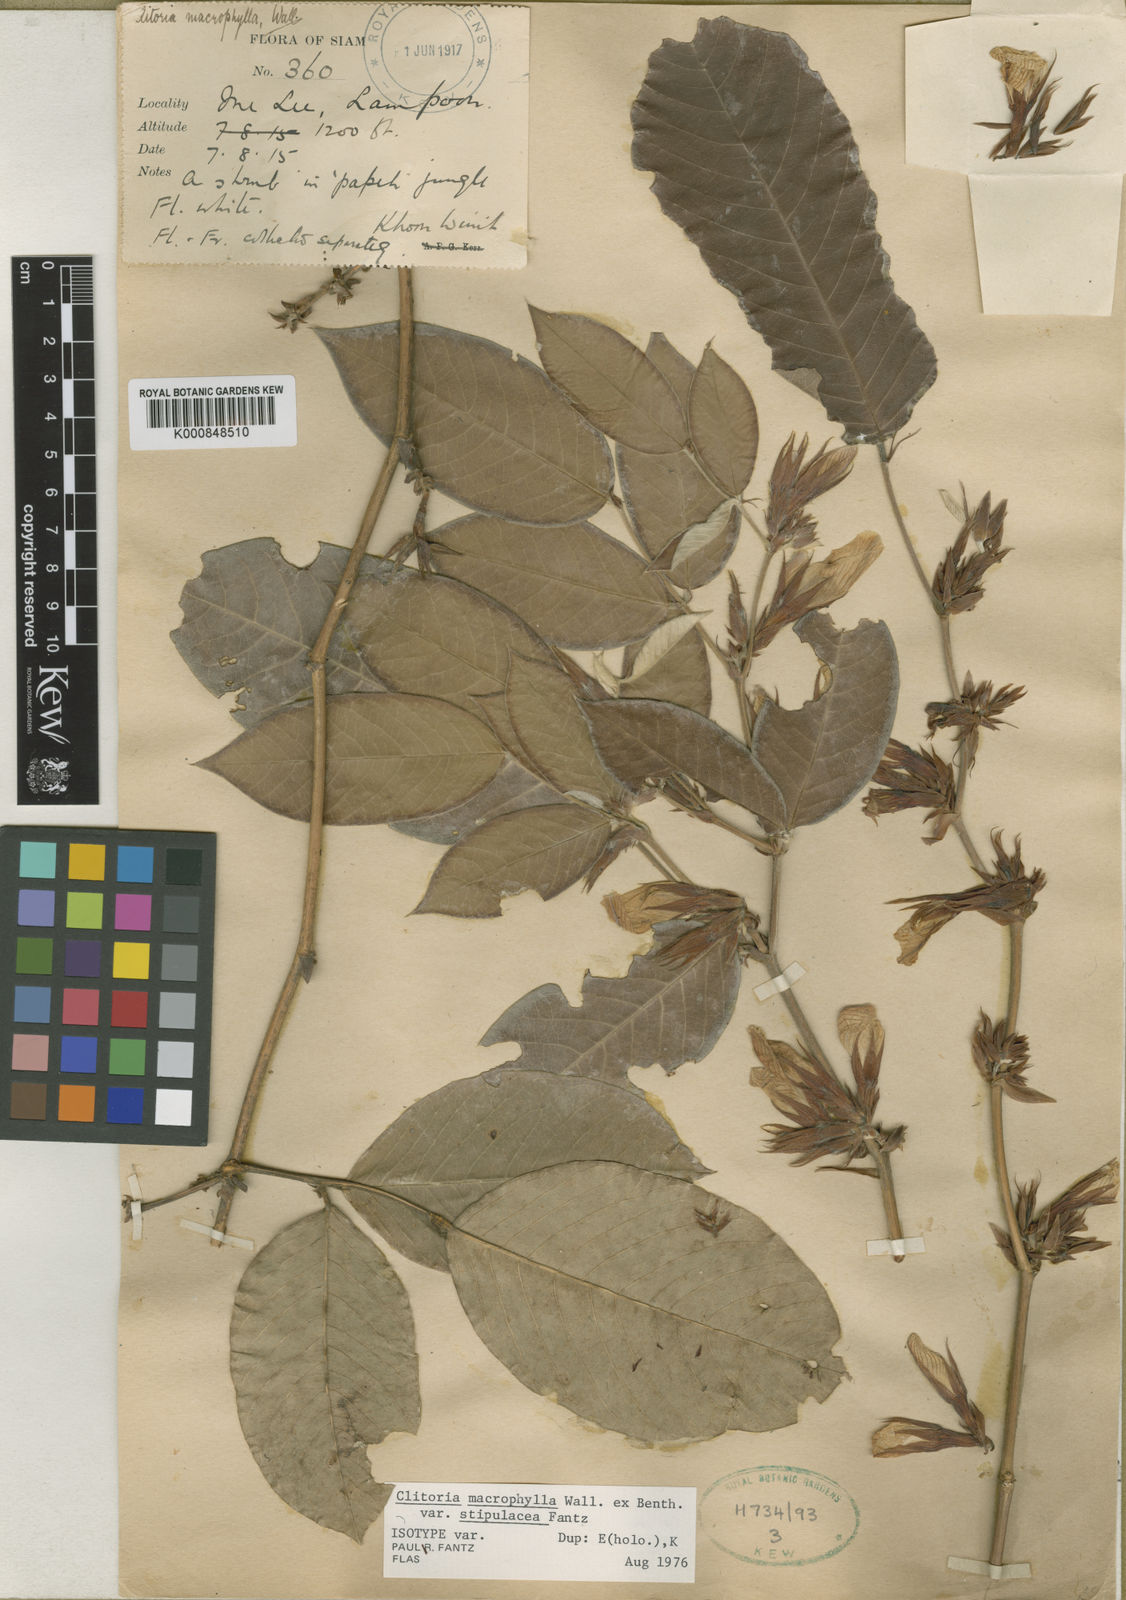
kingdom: Plantae
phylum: Tracheophyta
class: Magnoliopsida
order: Fabales
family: Fabaceae
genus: Clitoria
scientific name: Clitoria macrophylla
